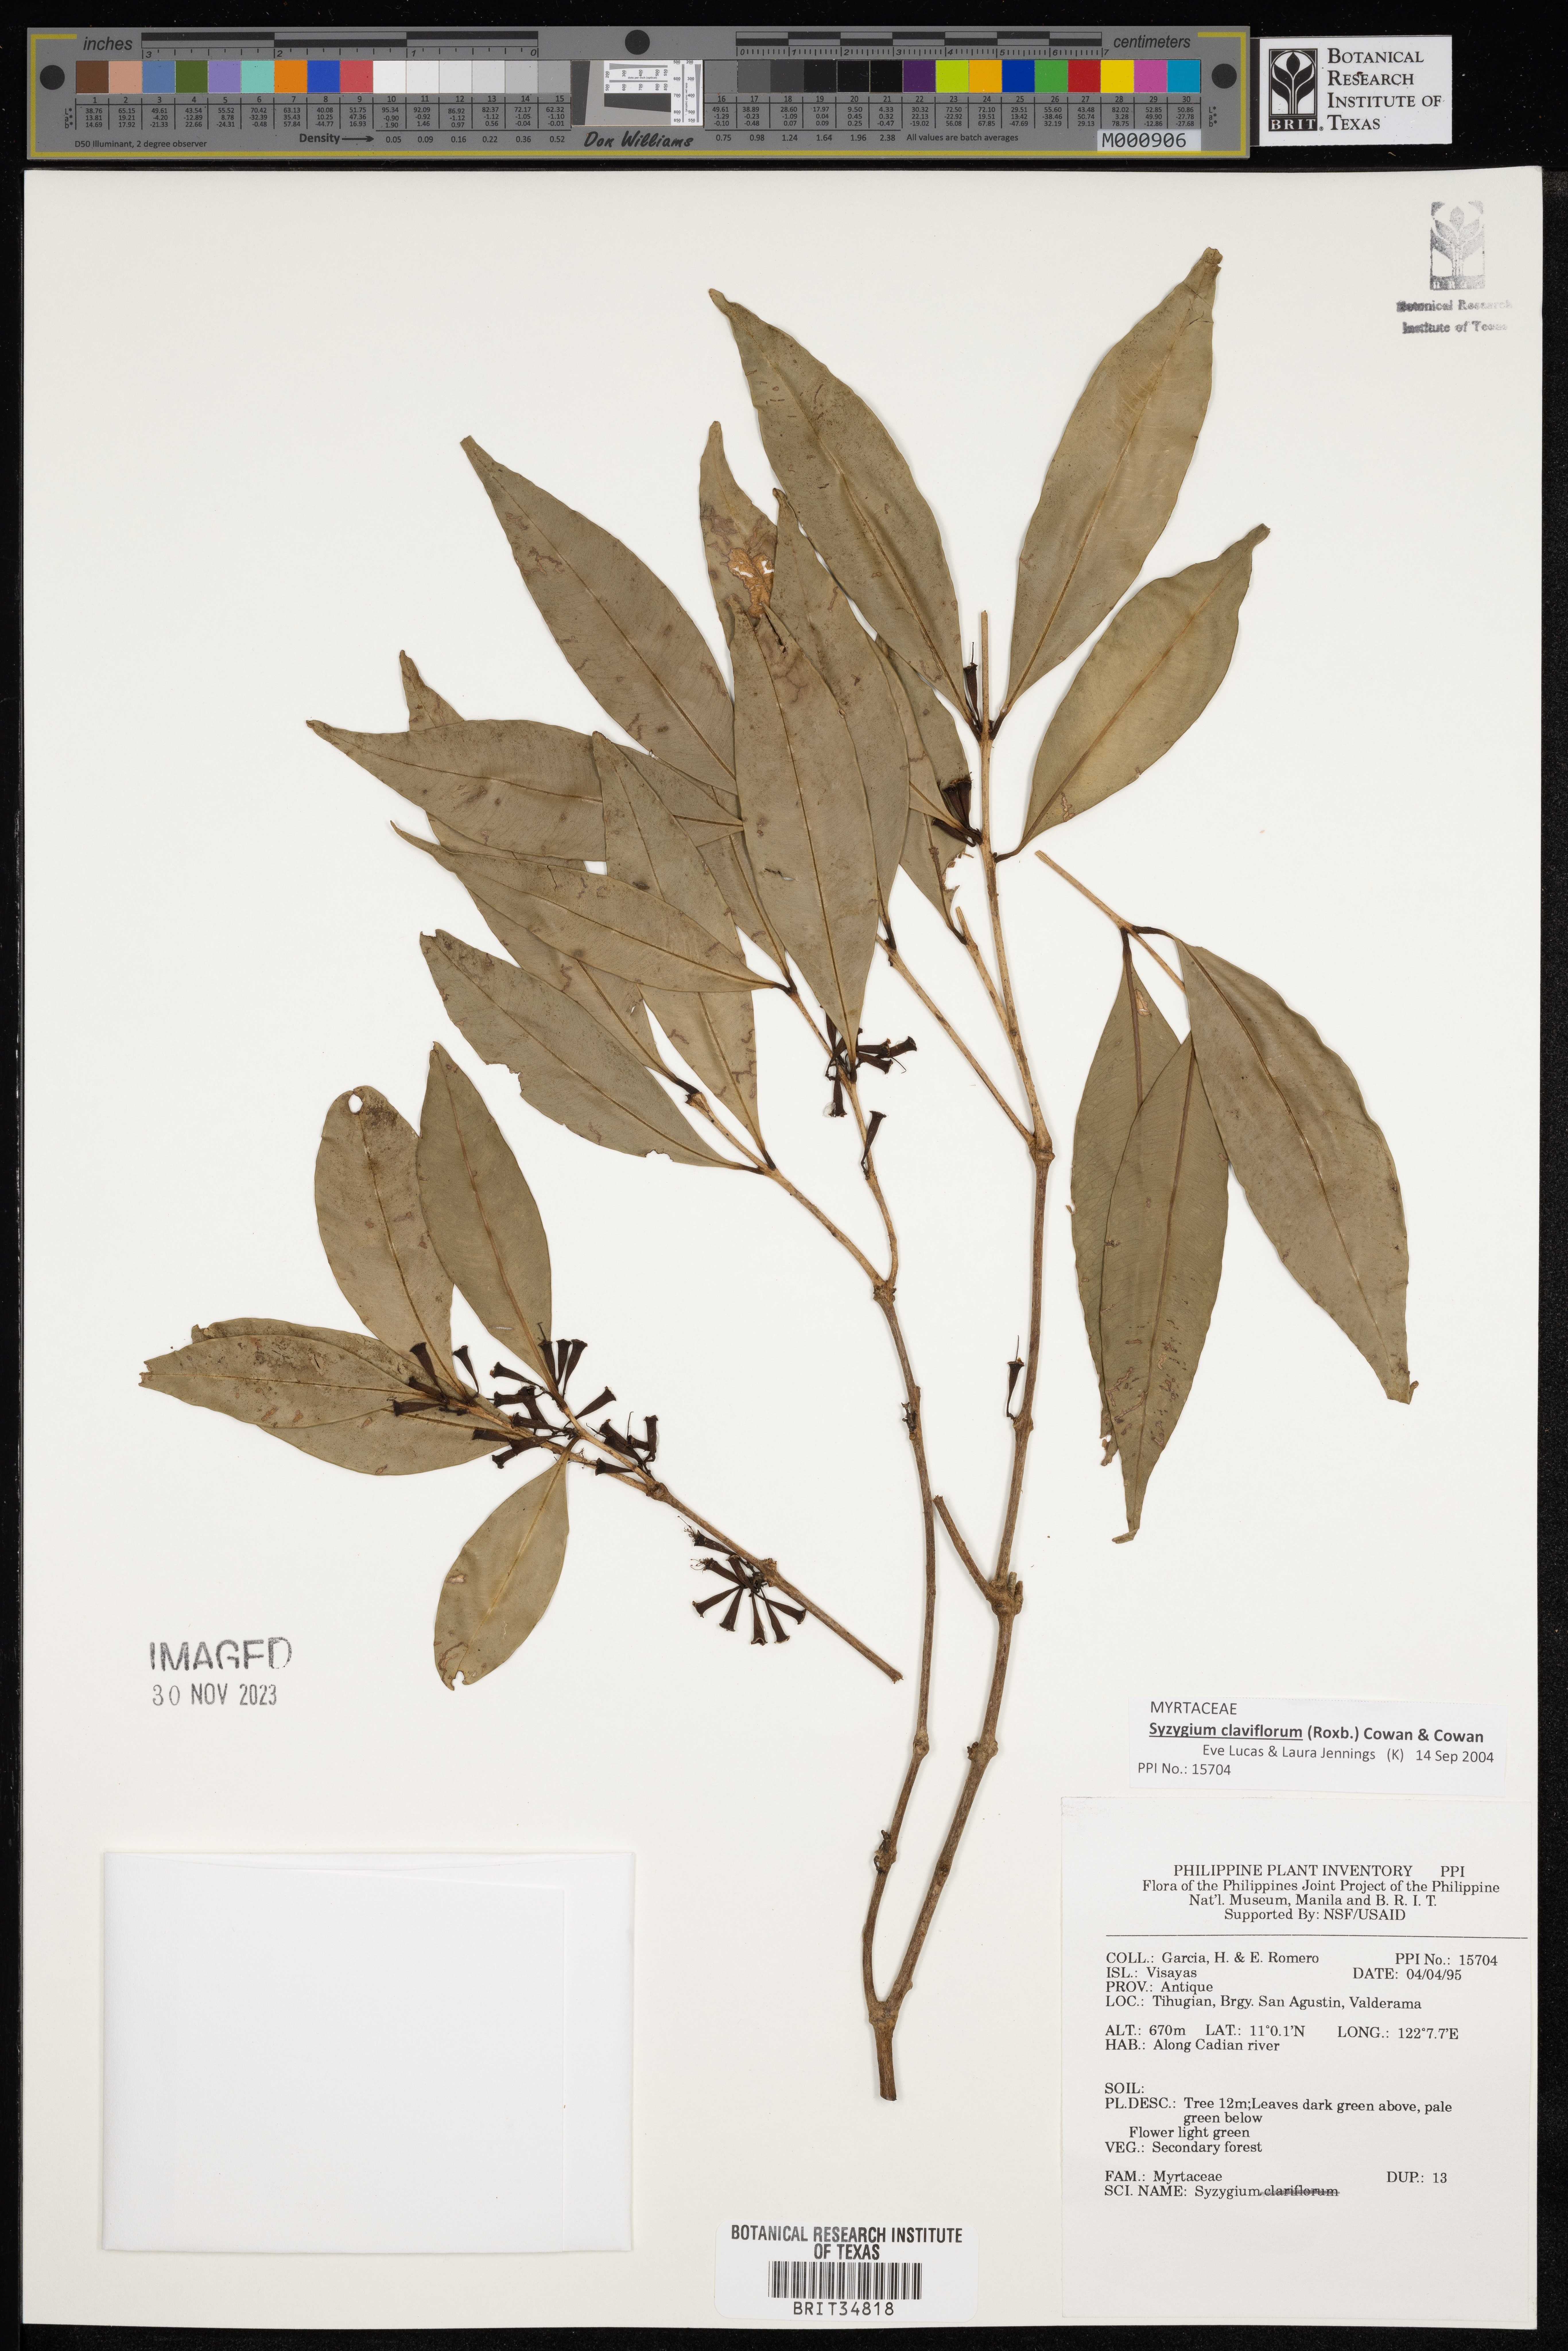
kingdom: Plantae
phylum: Tracheophyta
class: Magnoliopsida
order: Myrtales
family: Myrtaceae
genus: Syzygium
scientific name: Syzygium
